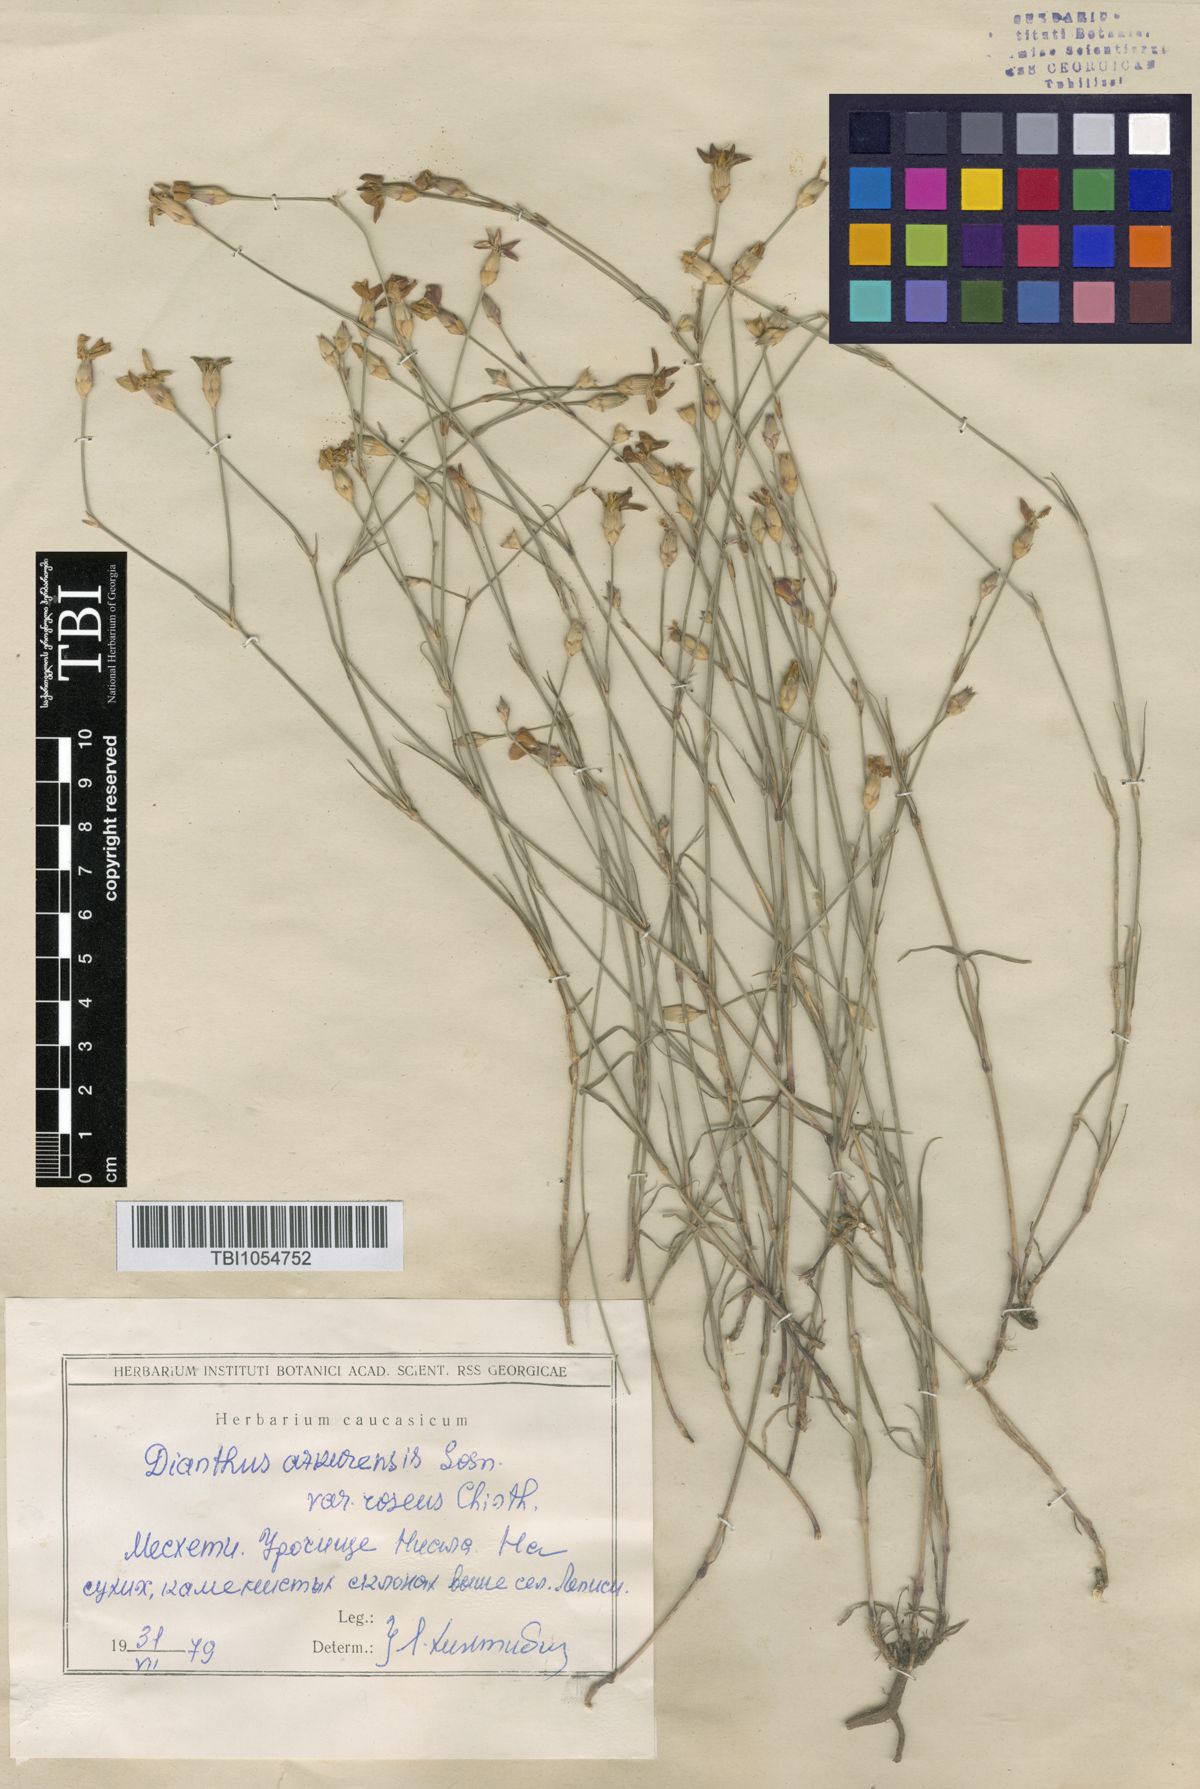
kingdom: Plantae
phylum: Tracheophyta
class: Magnoliopsida
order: Caryophyllales
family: Caryophyllaceae
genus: Dianthus
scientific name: Dianthus
